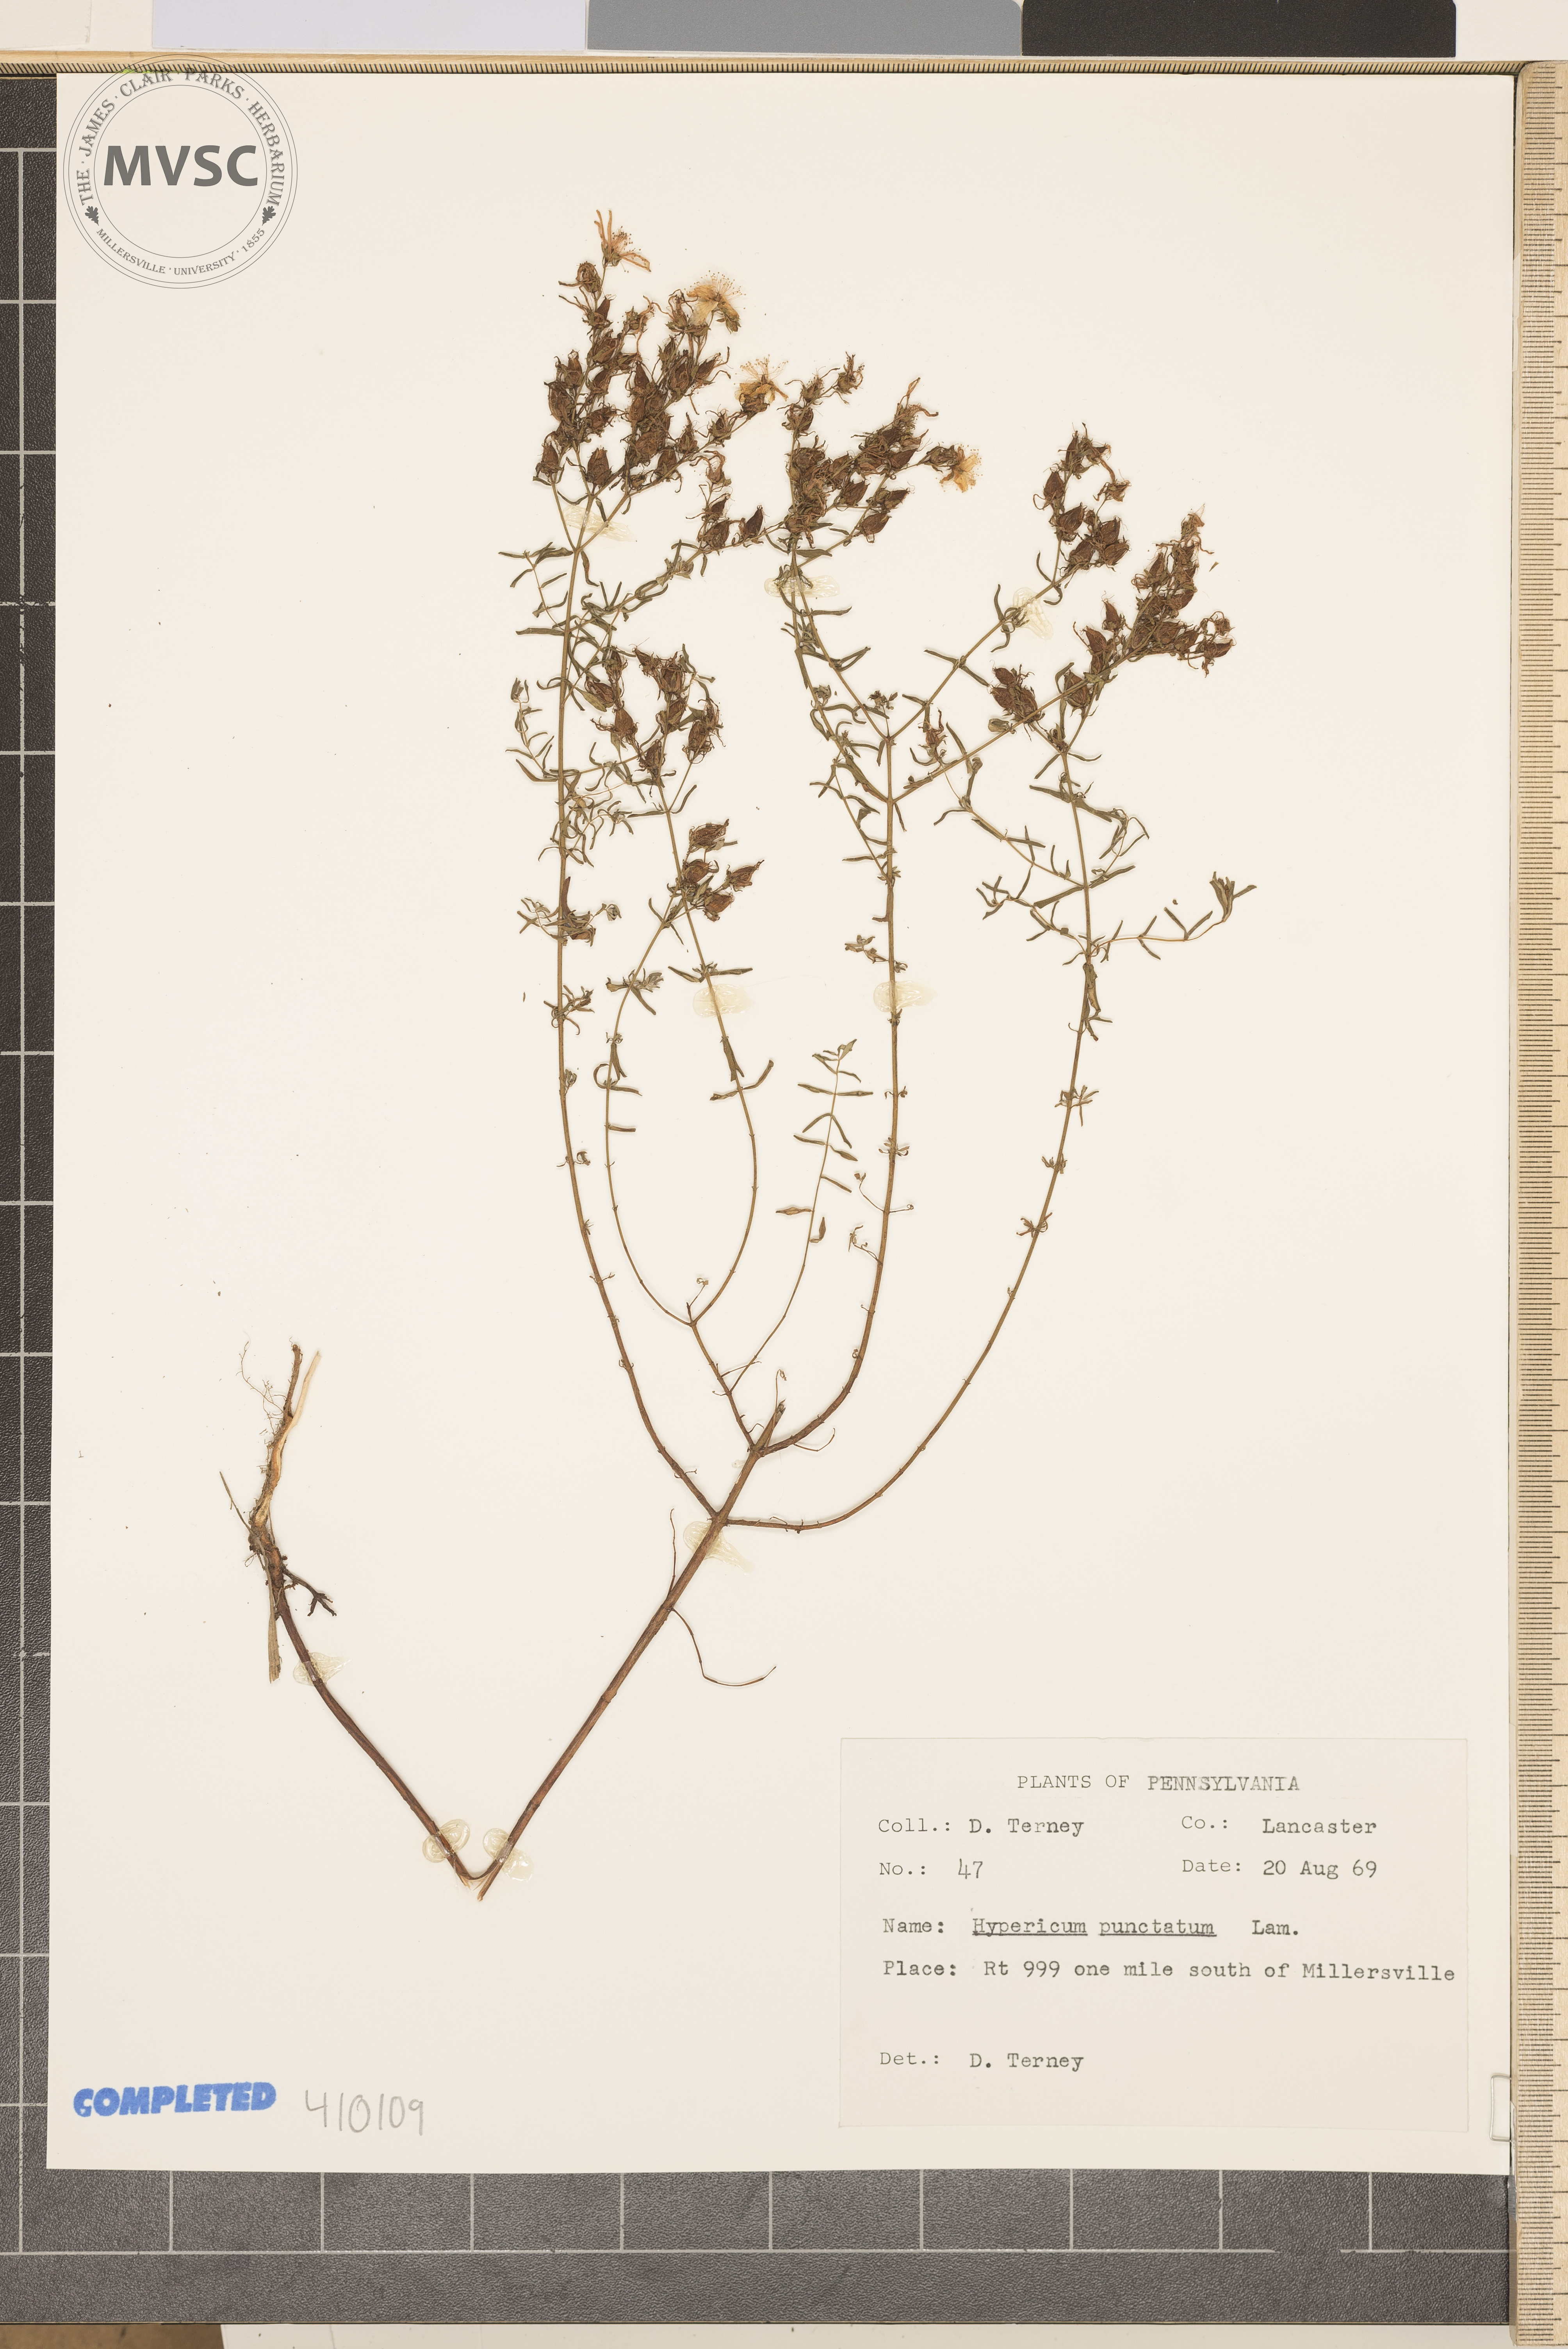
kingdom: Plantae
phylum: Tracheophyta
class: Magnoliopsida
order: Malpighiales
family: Hypericaceae
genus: Hypericum
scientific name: Hypericum punctatum
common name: Spotted St. John's-wort
